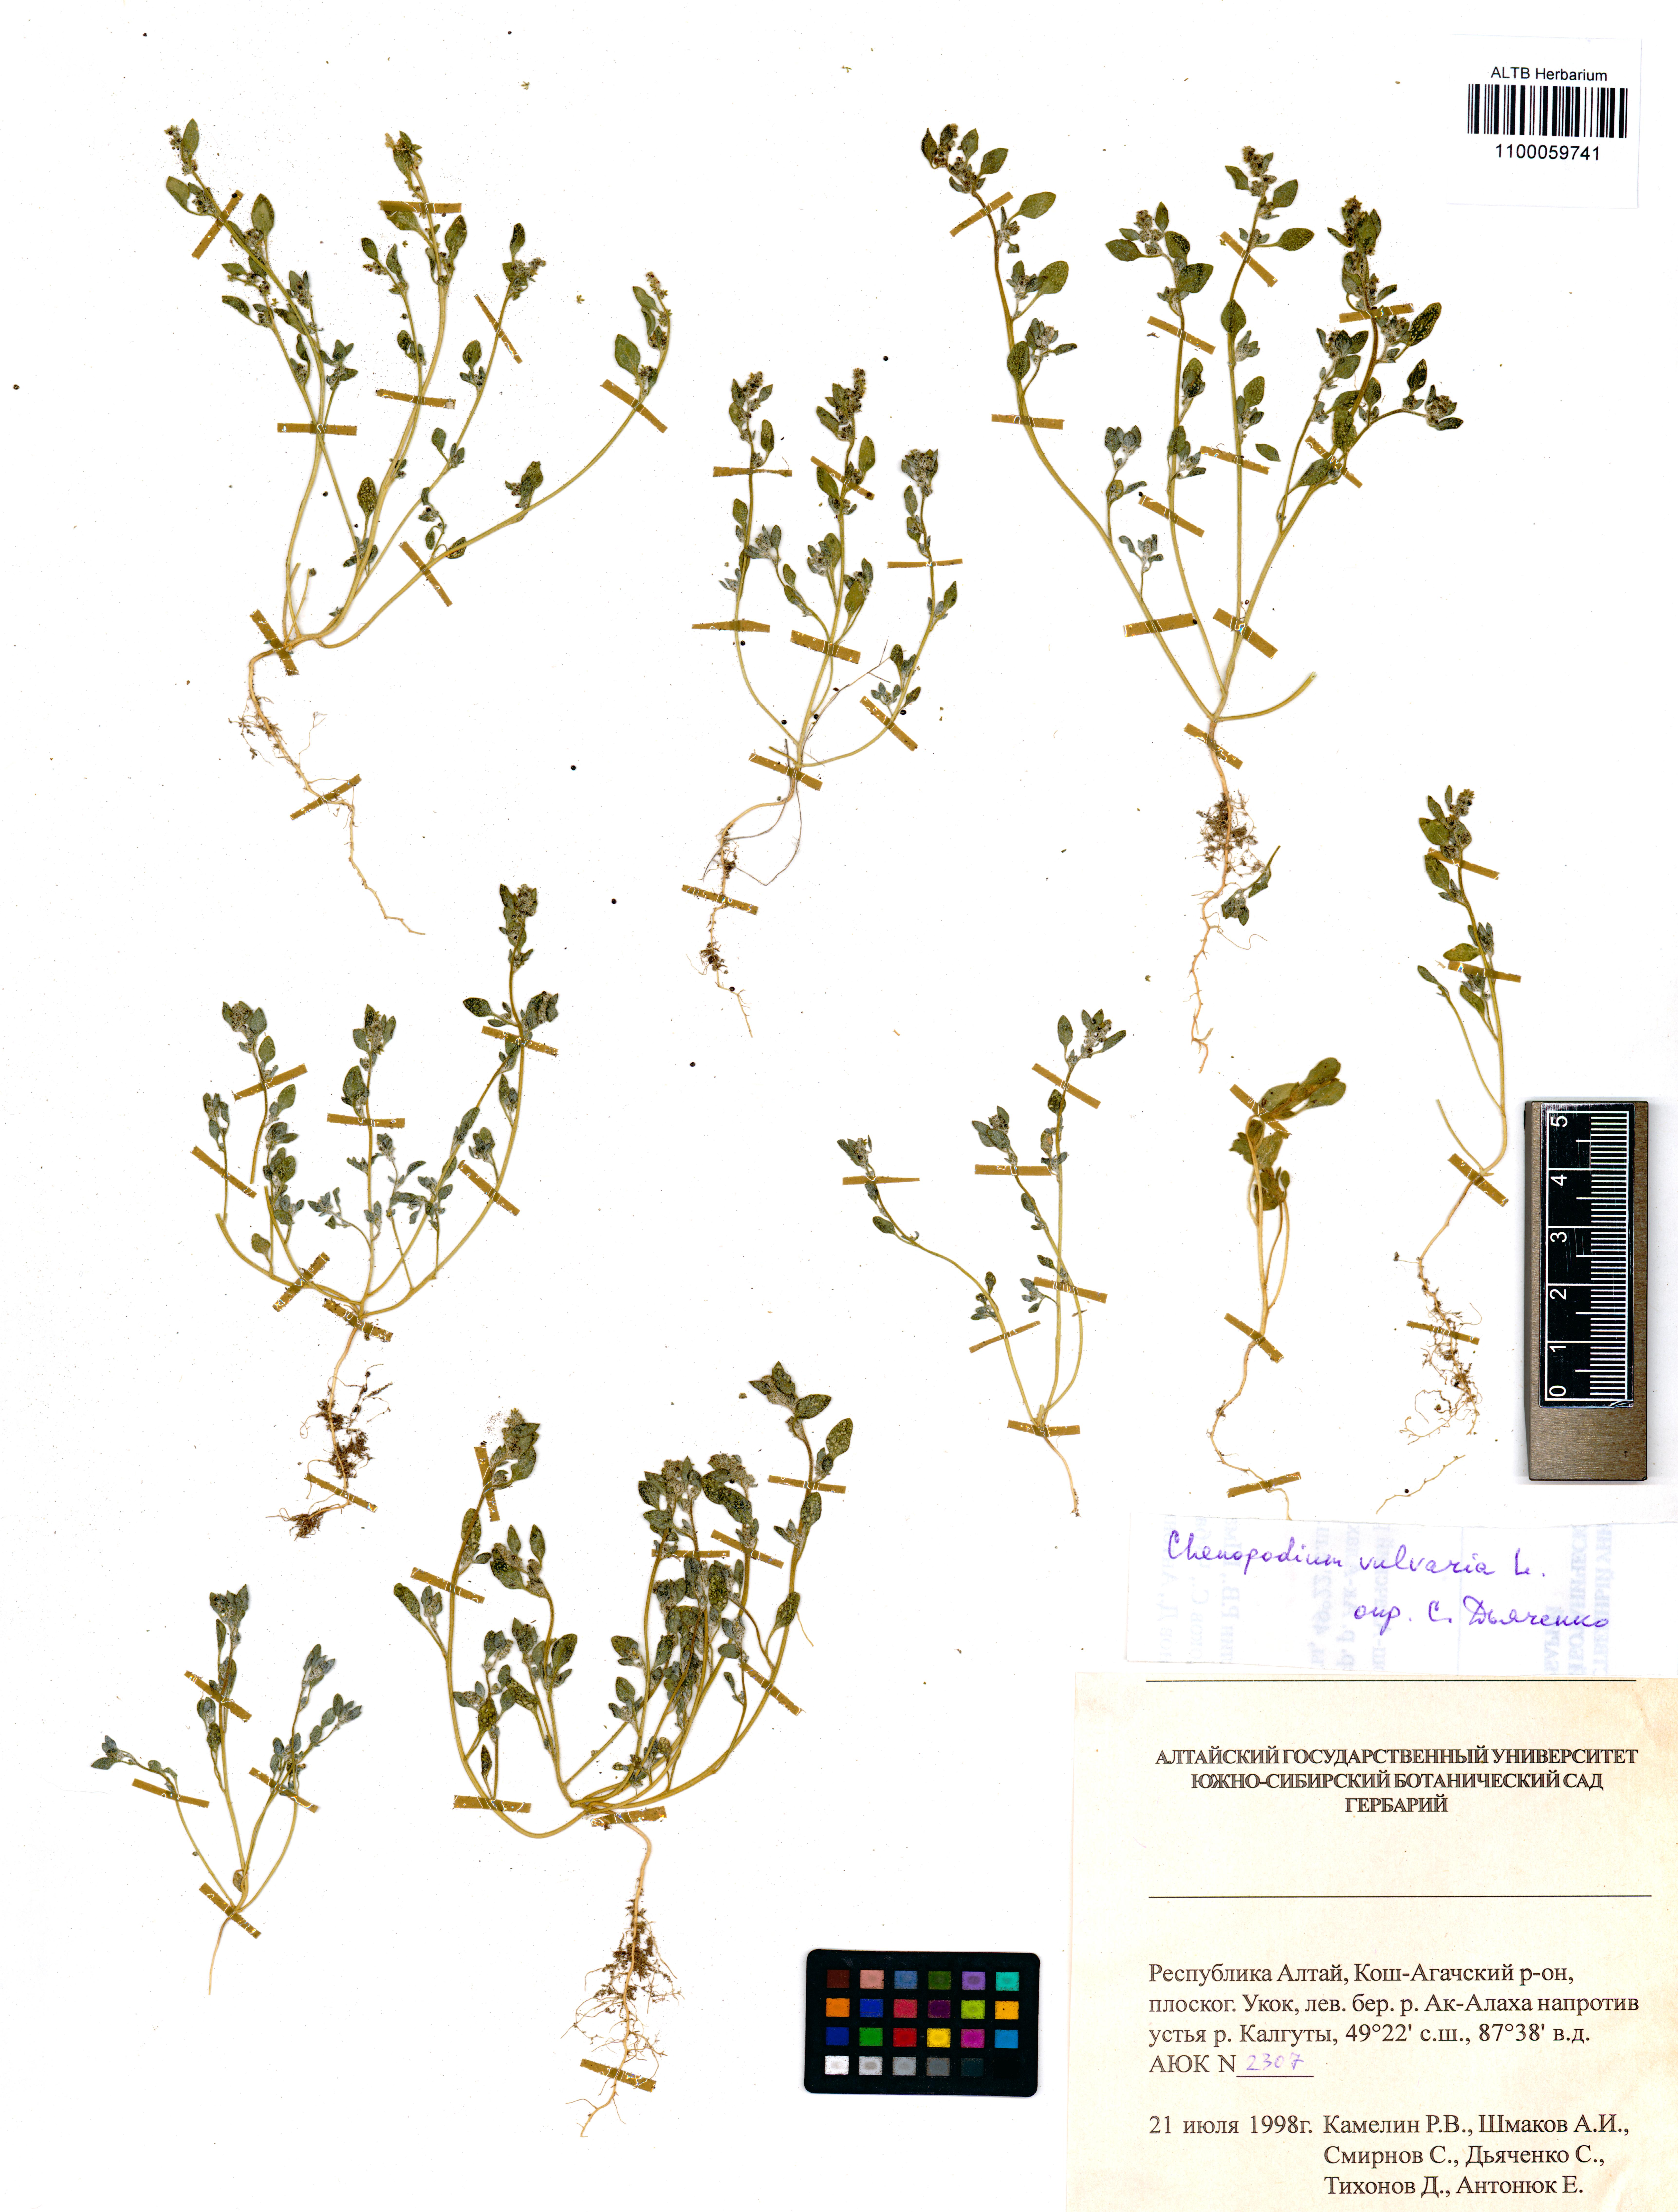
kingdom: Plantae
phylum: Tracheophyta
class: Magnoliopsida
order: Caryophyllales
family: Amaranthaceae
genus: Chenopodium
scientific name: Chenopodium vulvaria
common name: Stinking goosefoot
